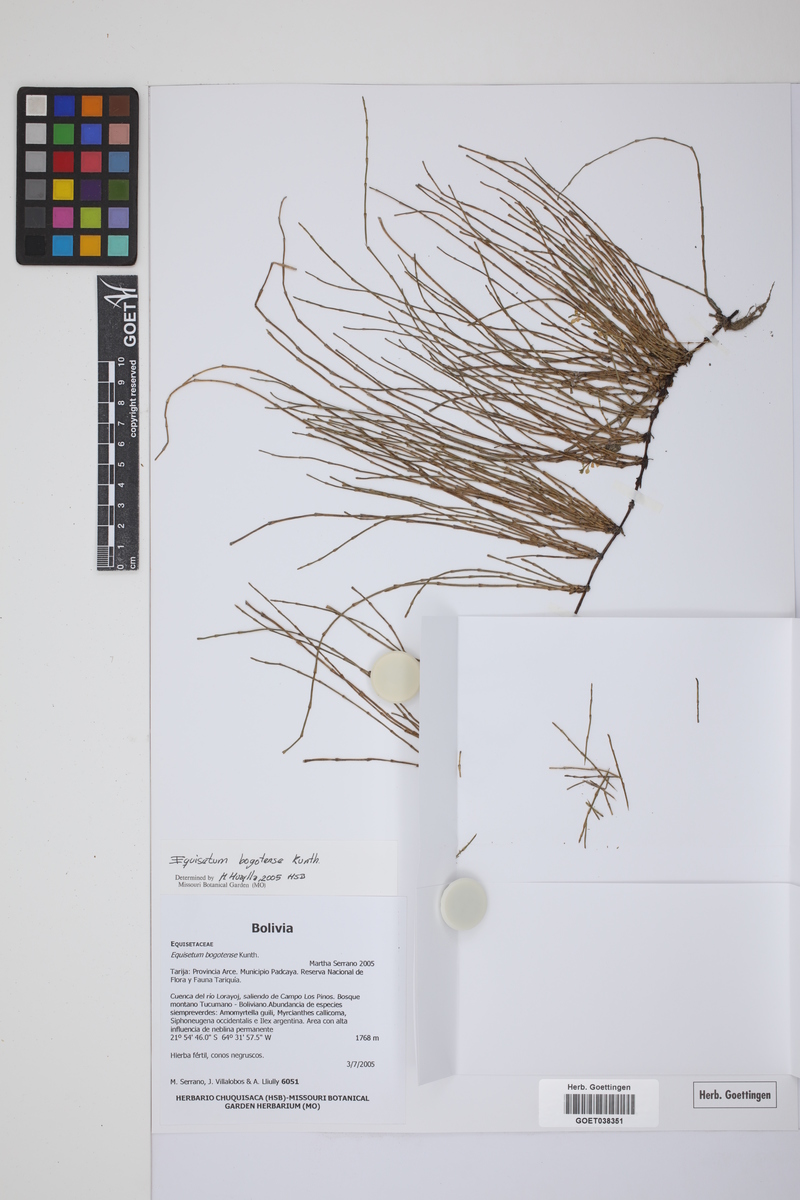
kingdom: Plantae
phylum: Tracheophyta
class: Polypodiopsida
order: Equisetales
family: Equisetaceae
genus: Equisetum
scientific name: Equisetum bogotense
